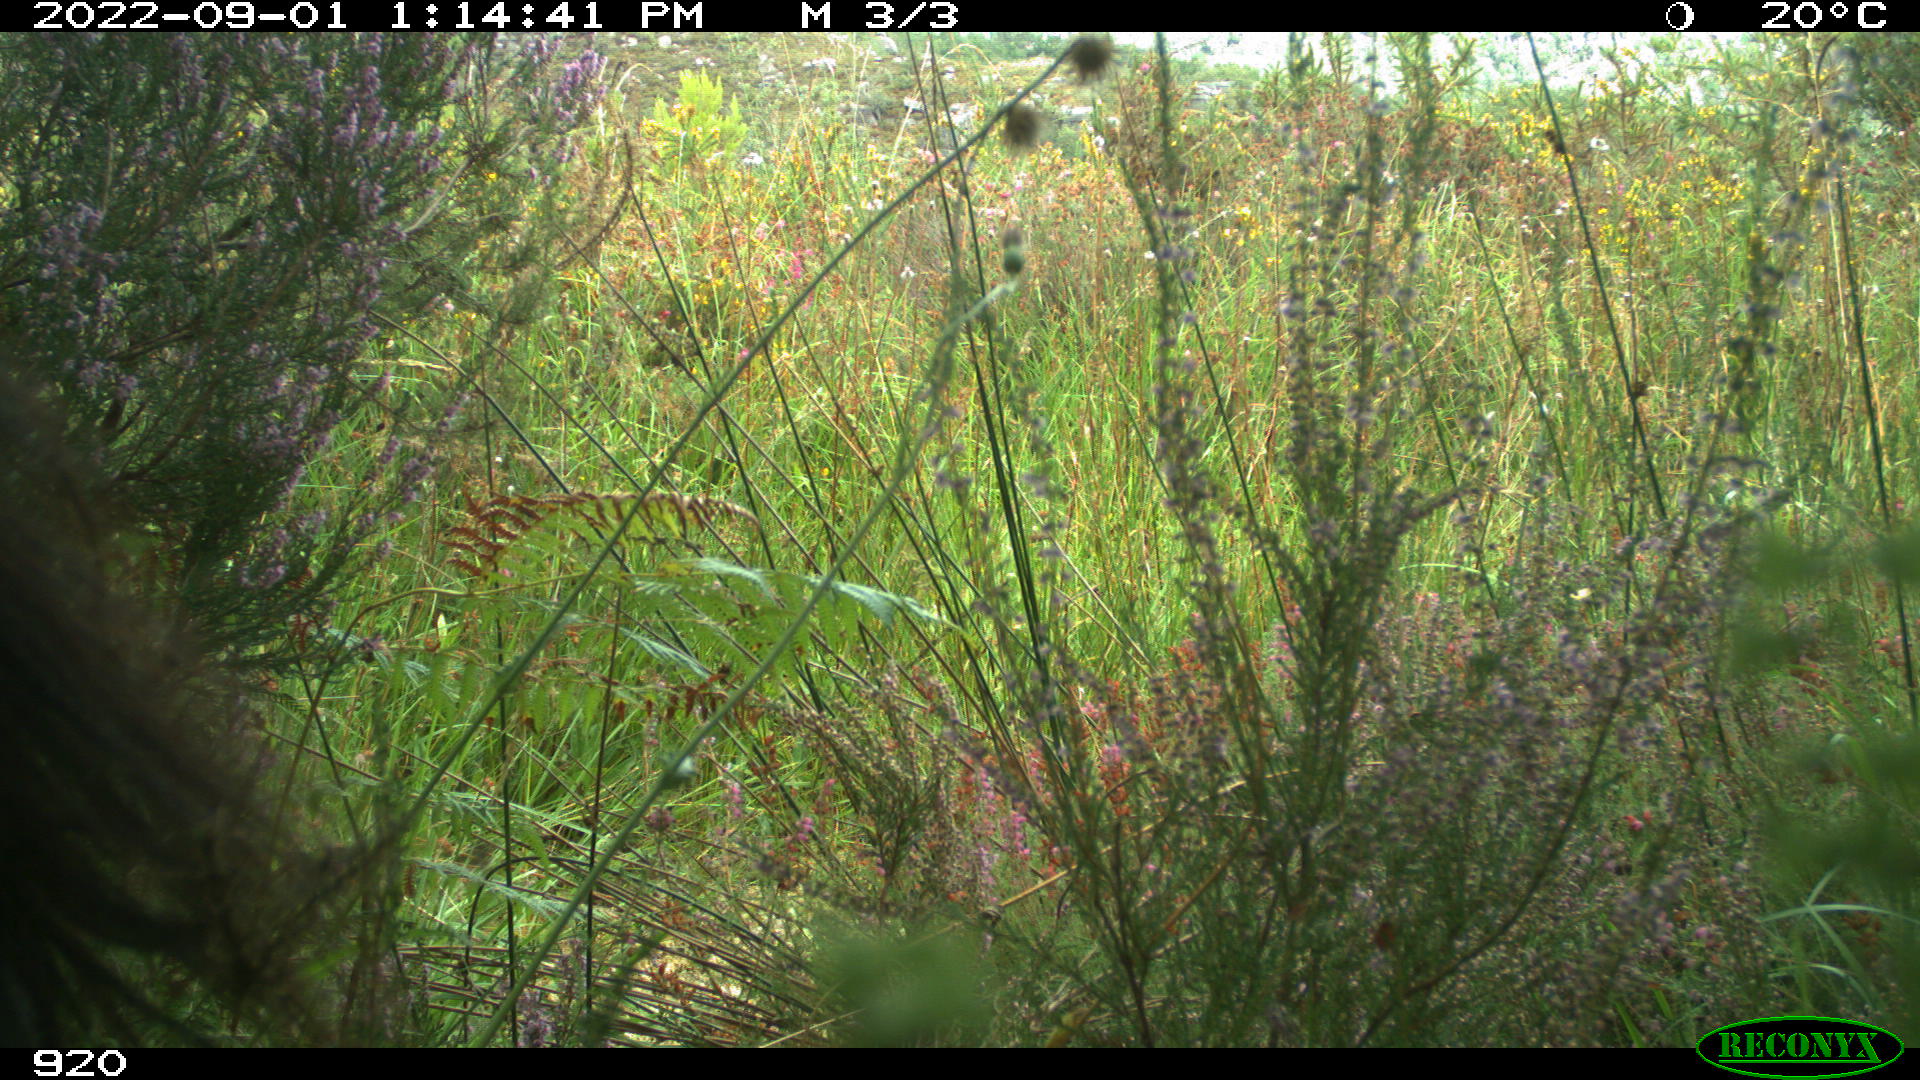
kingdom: Animalia
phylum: Chordata
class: Mammalia
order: Perissodactyla
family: Equidae
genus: Equus
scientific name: Equus caballus
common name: Horse
